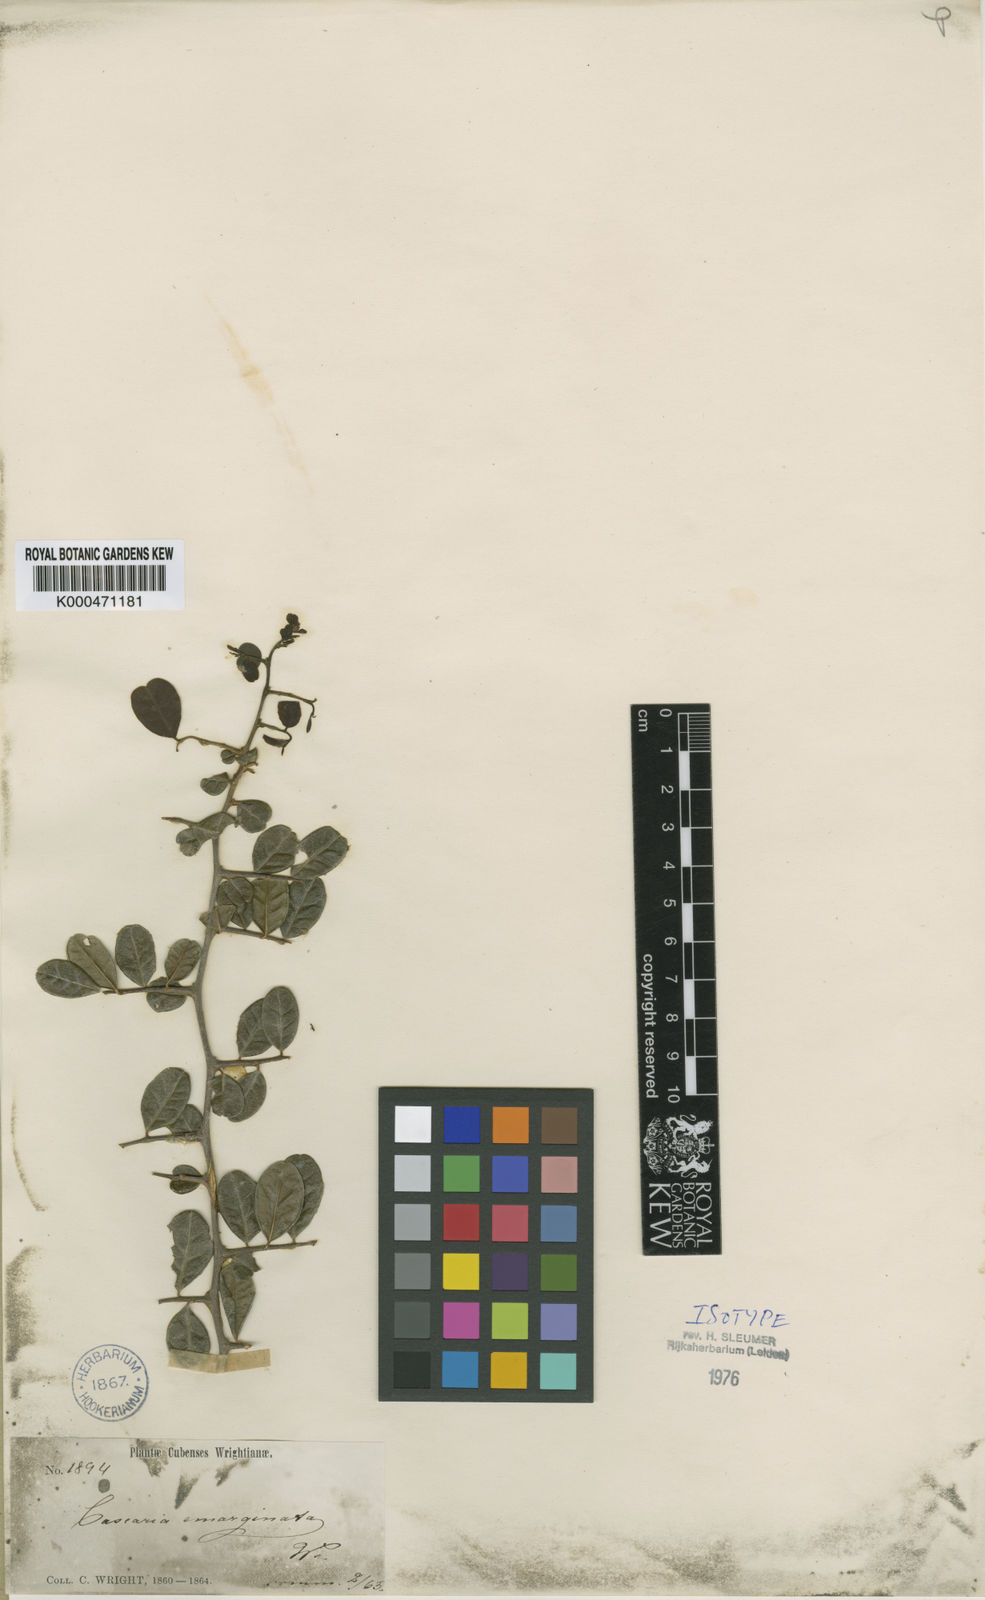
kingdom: Plantae
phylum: Tracheophyta
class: Magnoliopsida
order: Malpighiales
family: Salicaceae
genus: Casearia
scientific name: Casearia emarginata
